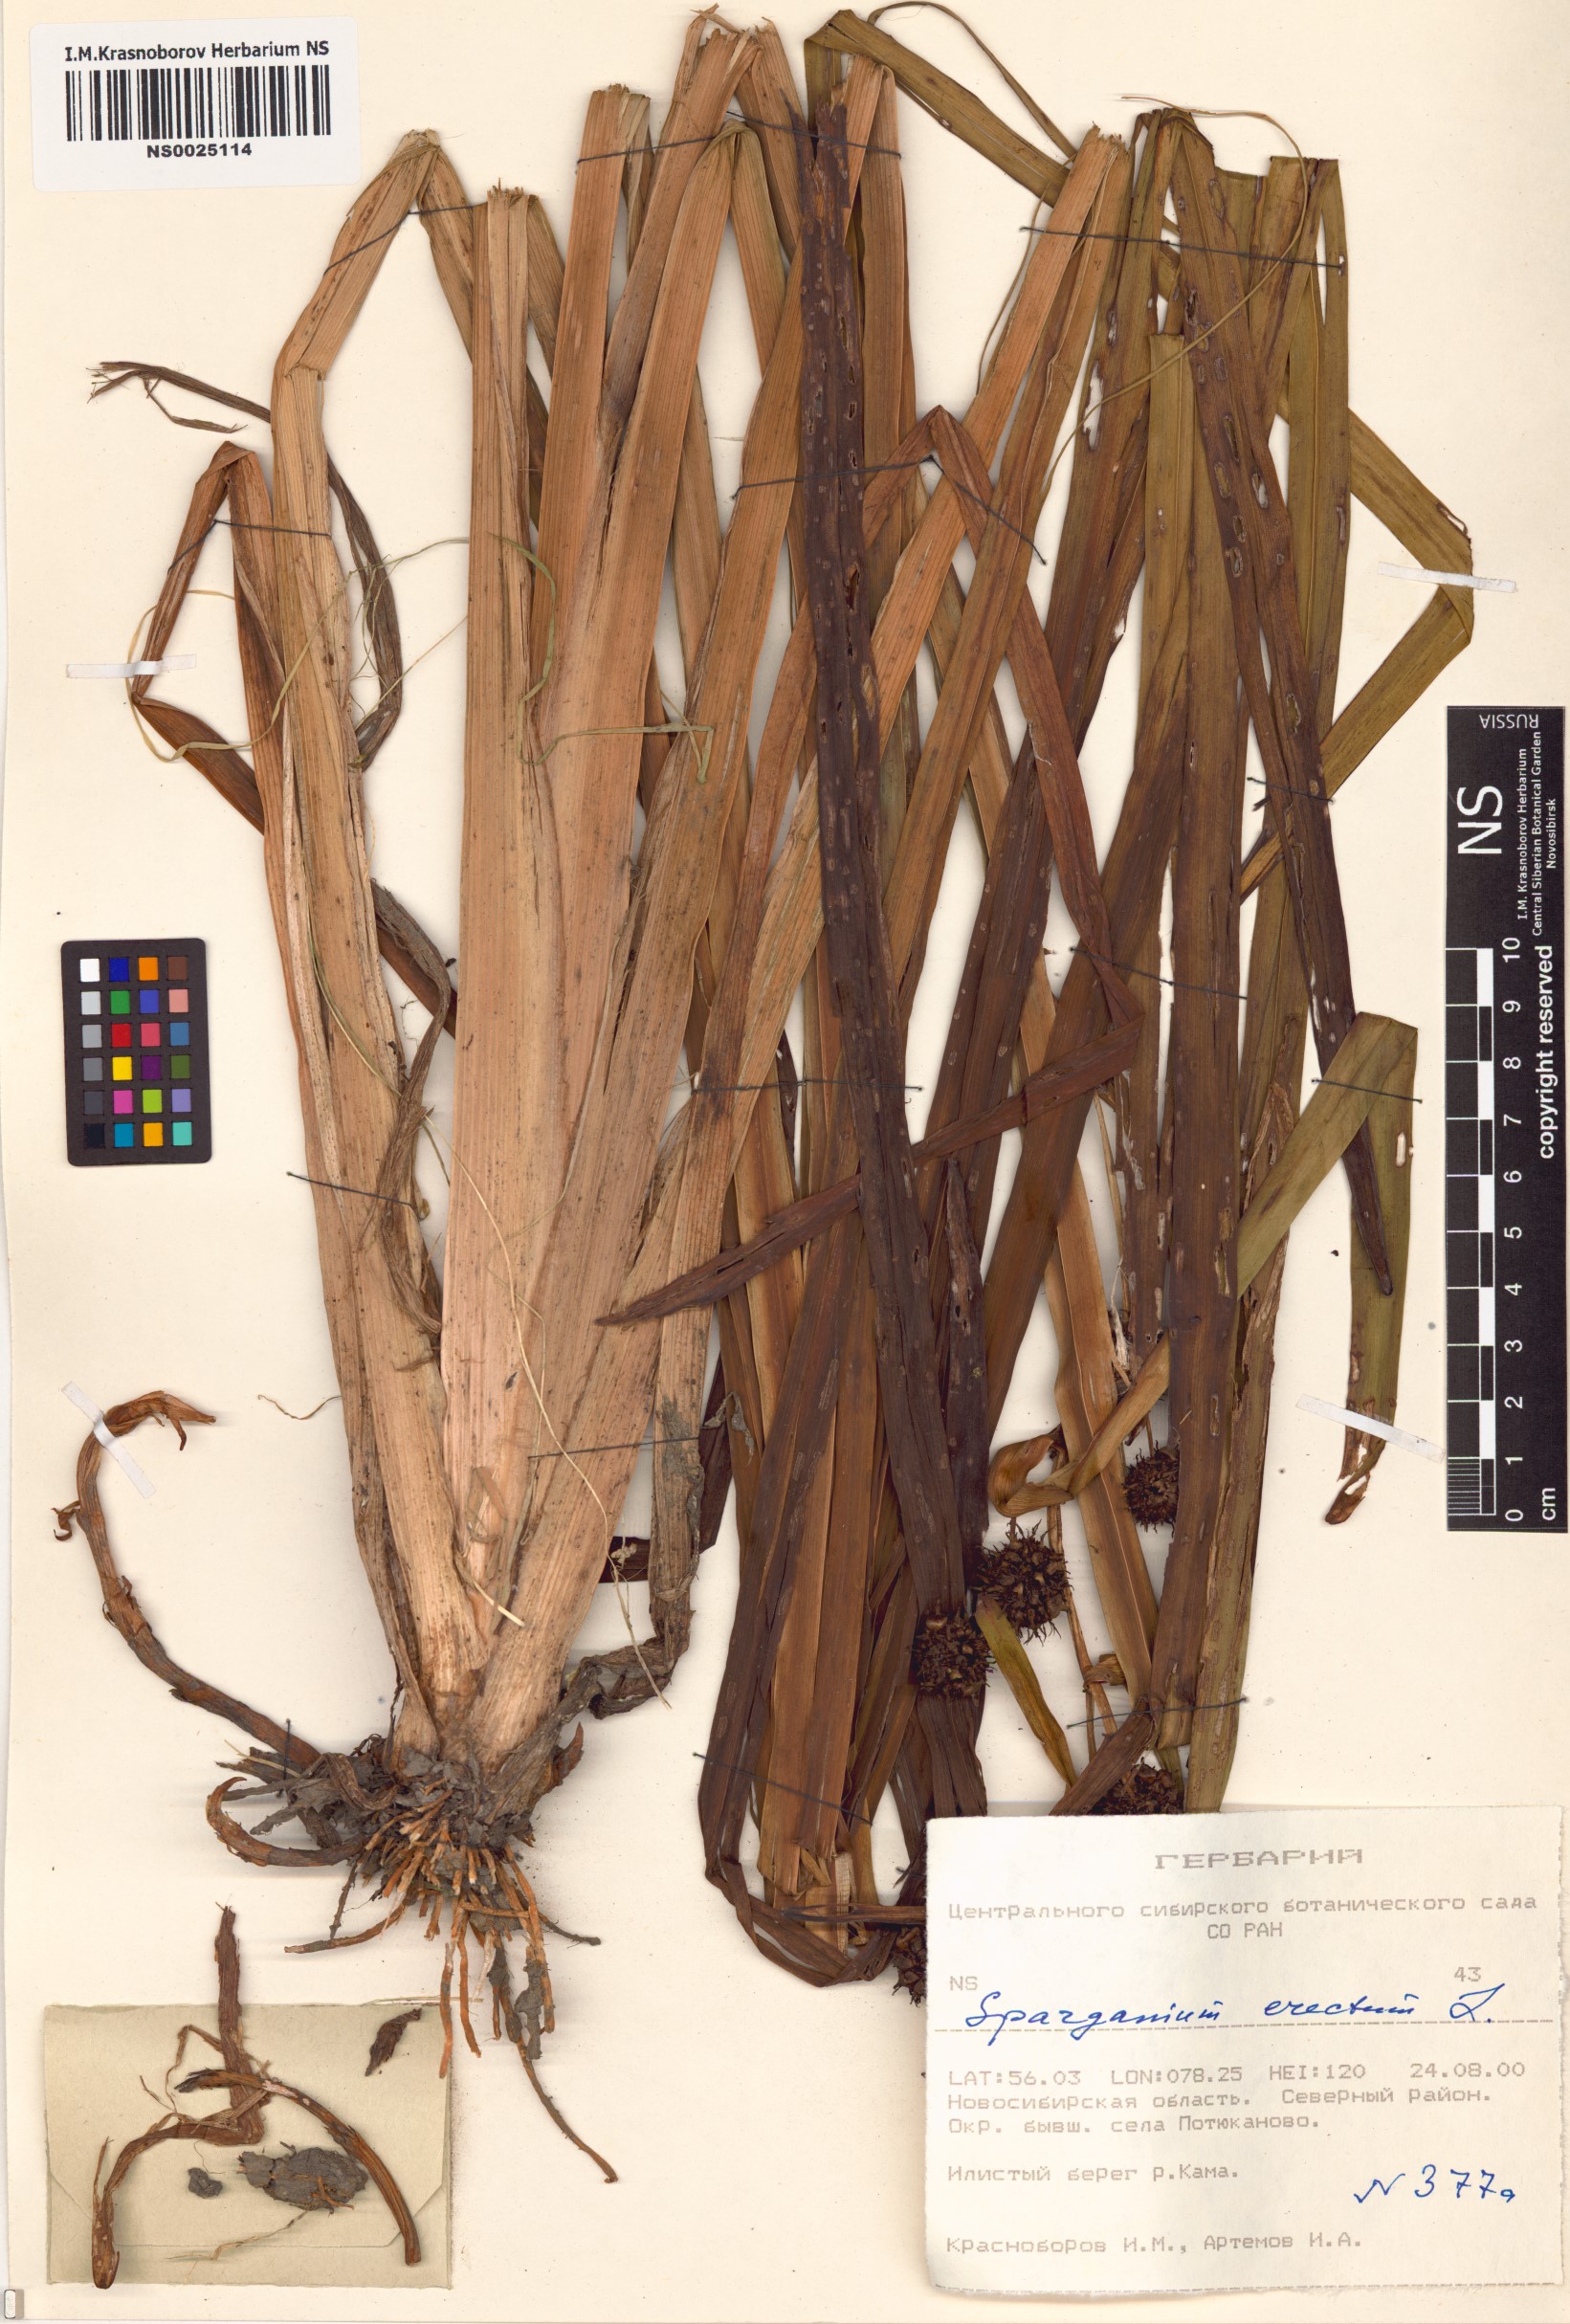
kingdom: Plantae
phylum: Tracheophyta
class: Liliopsida
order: Poales
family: Typhaceae
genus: Sparganium
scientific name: Sparganium erectum
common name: Branched bur-reed
